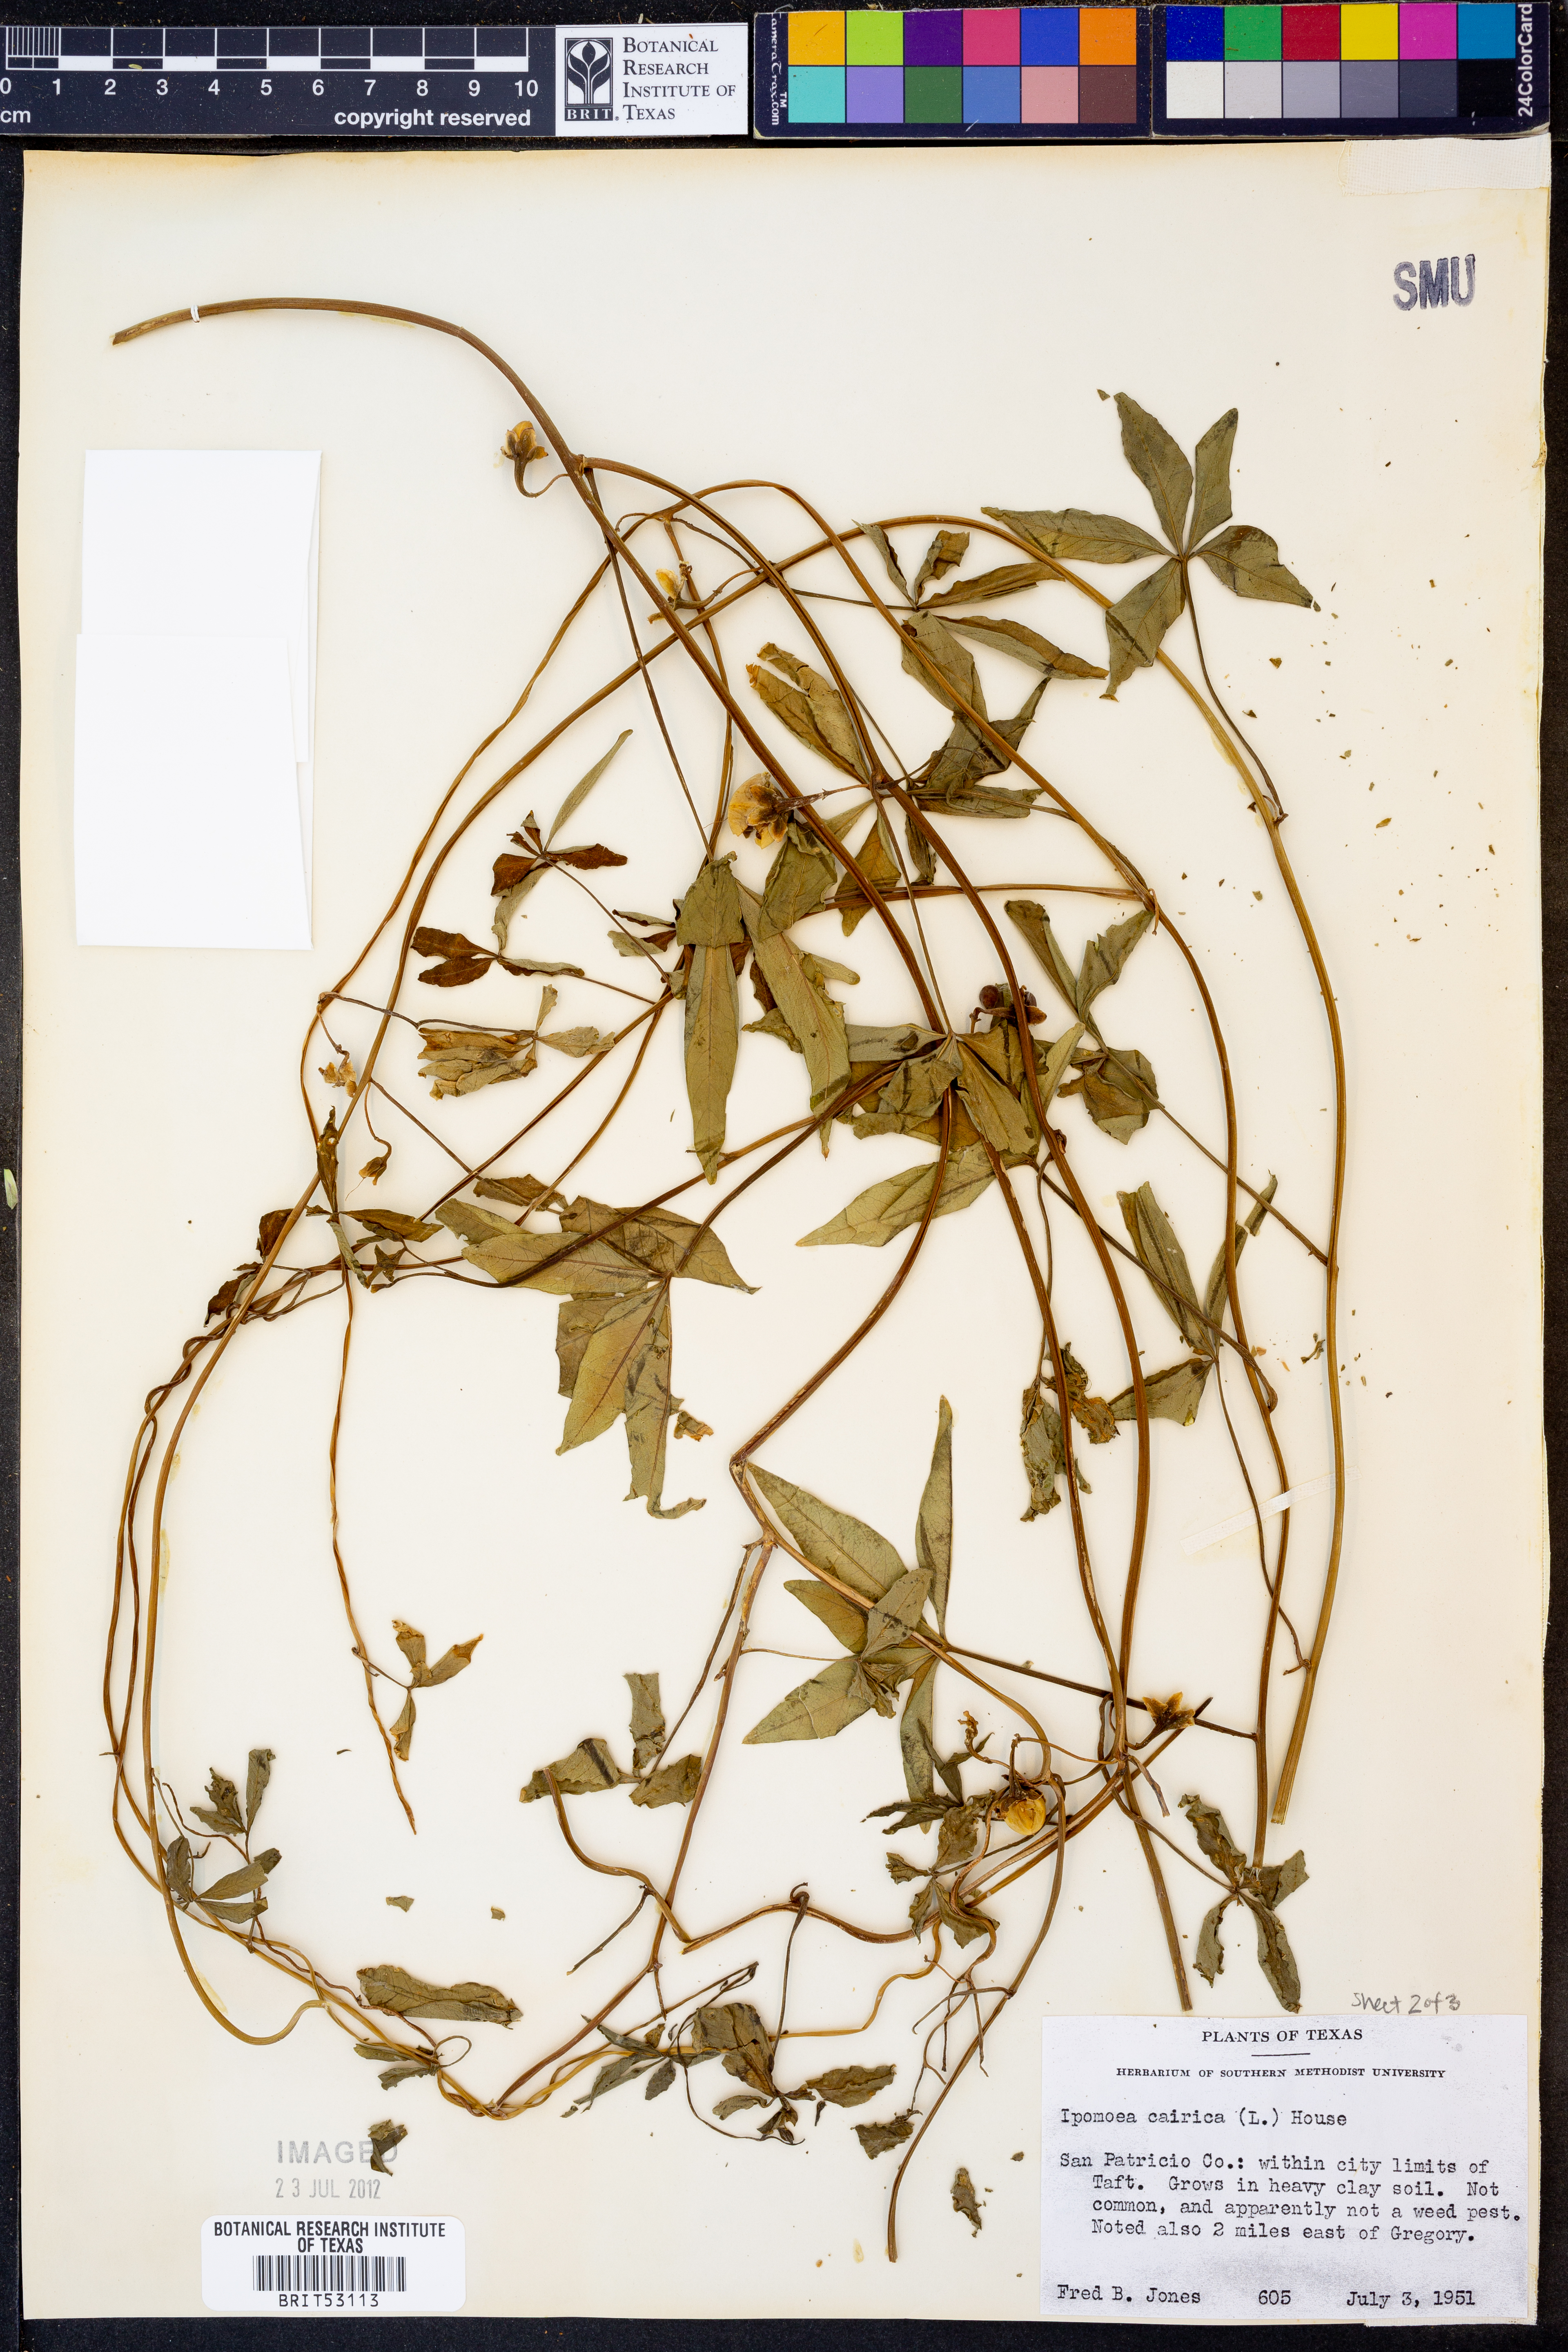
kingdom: Plantae
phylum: Tracheophyta
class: Magnoliopsida
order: Solanales
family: Convolvulaceae
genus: Ipomoea
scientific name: Ipomoea cairica
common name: Mile a minute vine
